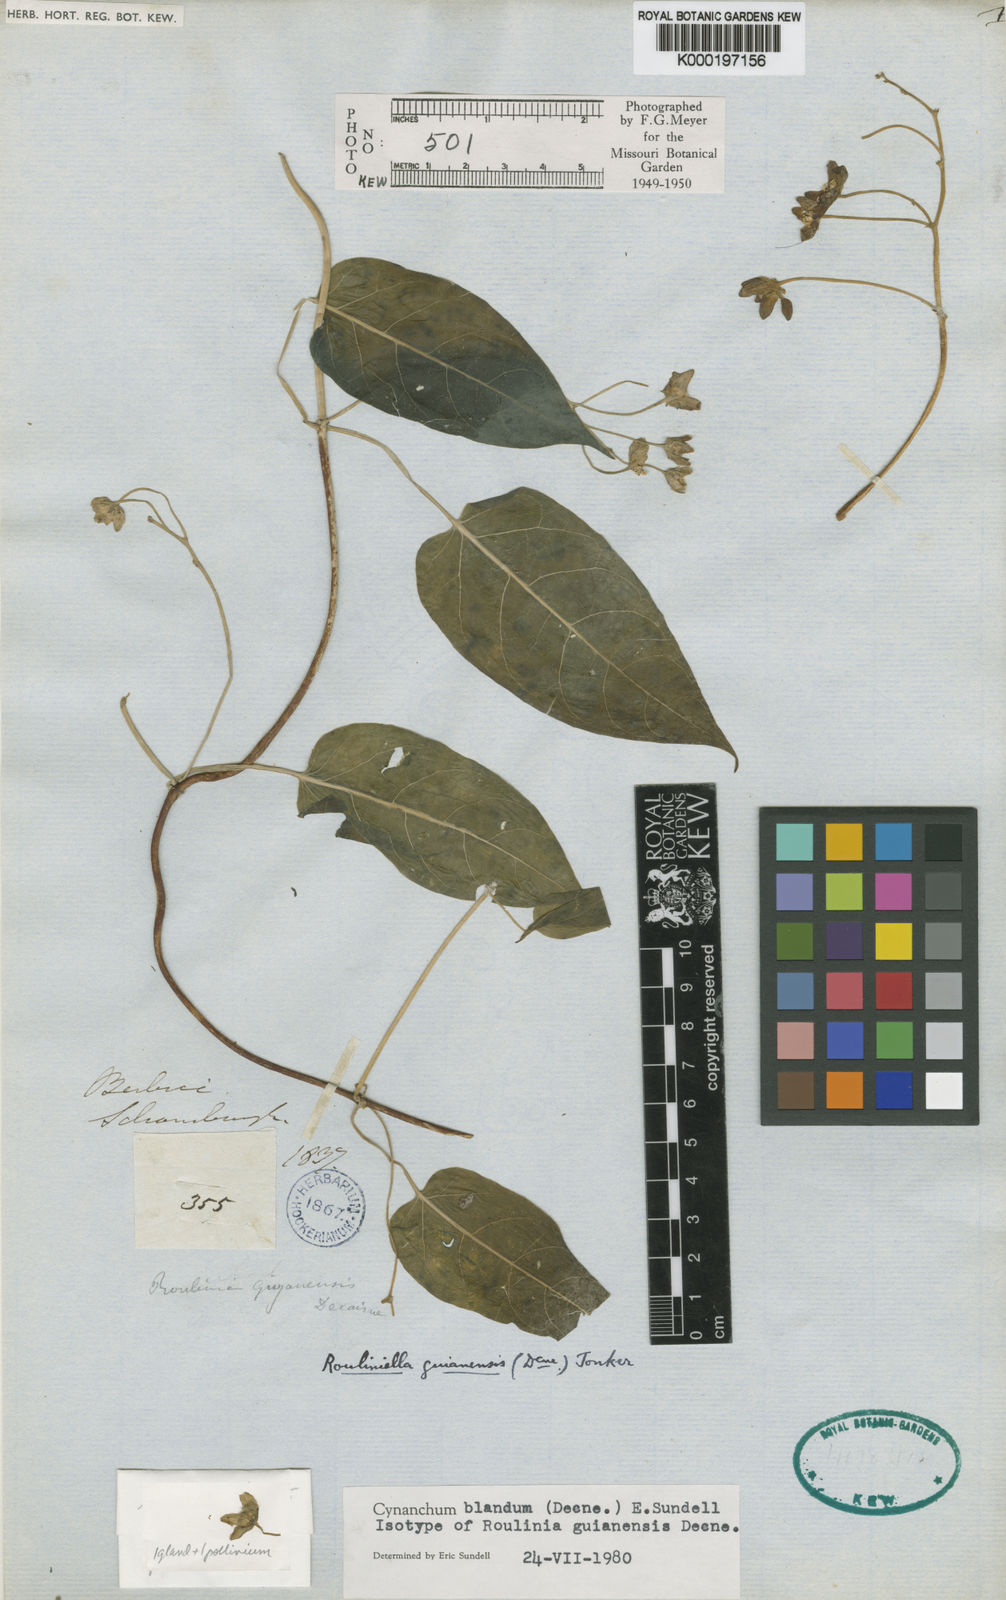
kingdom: Plantae
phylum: Tracheophyta
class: Magnoliopsida
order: Gentianales
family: Apocynaceae
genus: Cynanchum
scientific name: Cynanchum blandum
